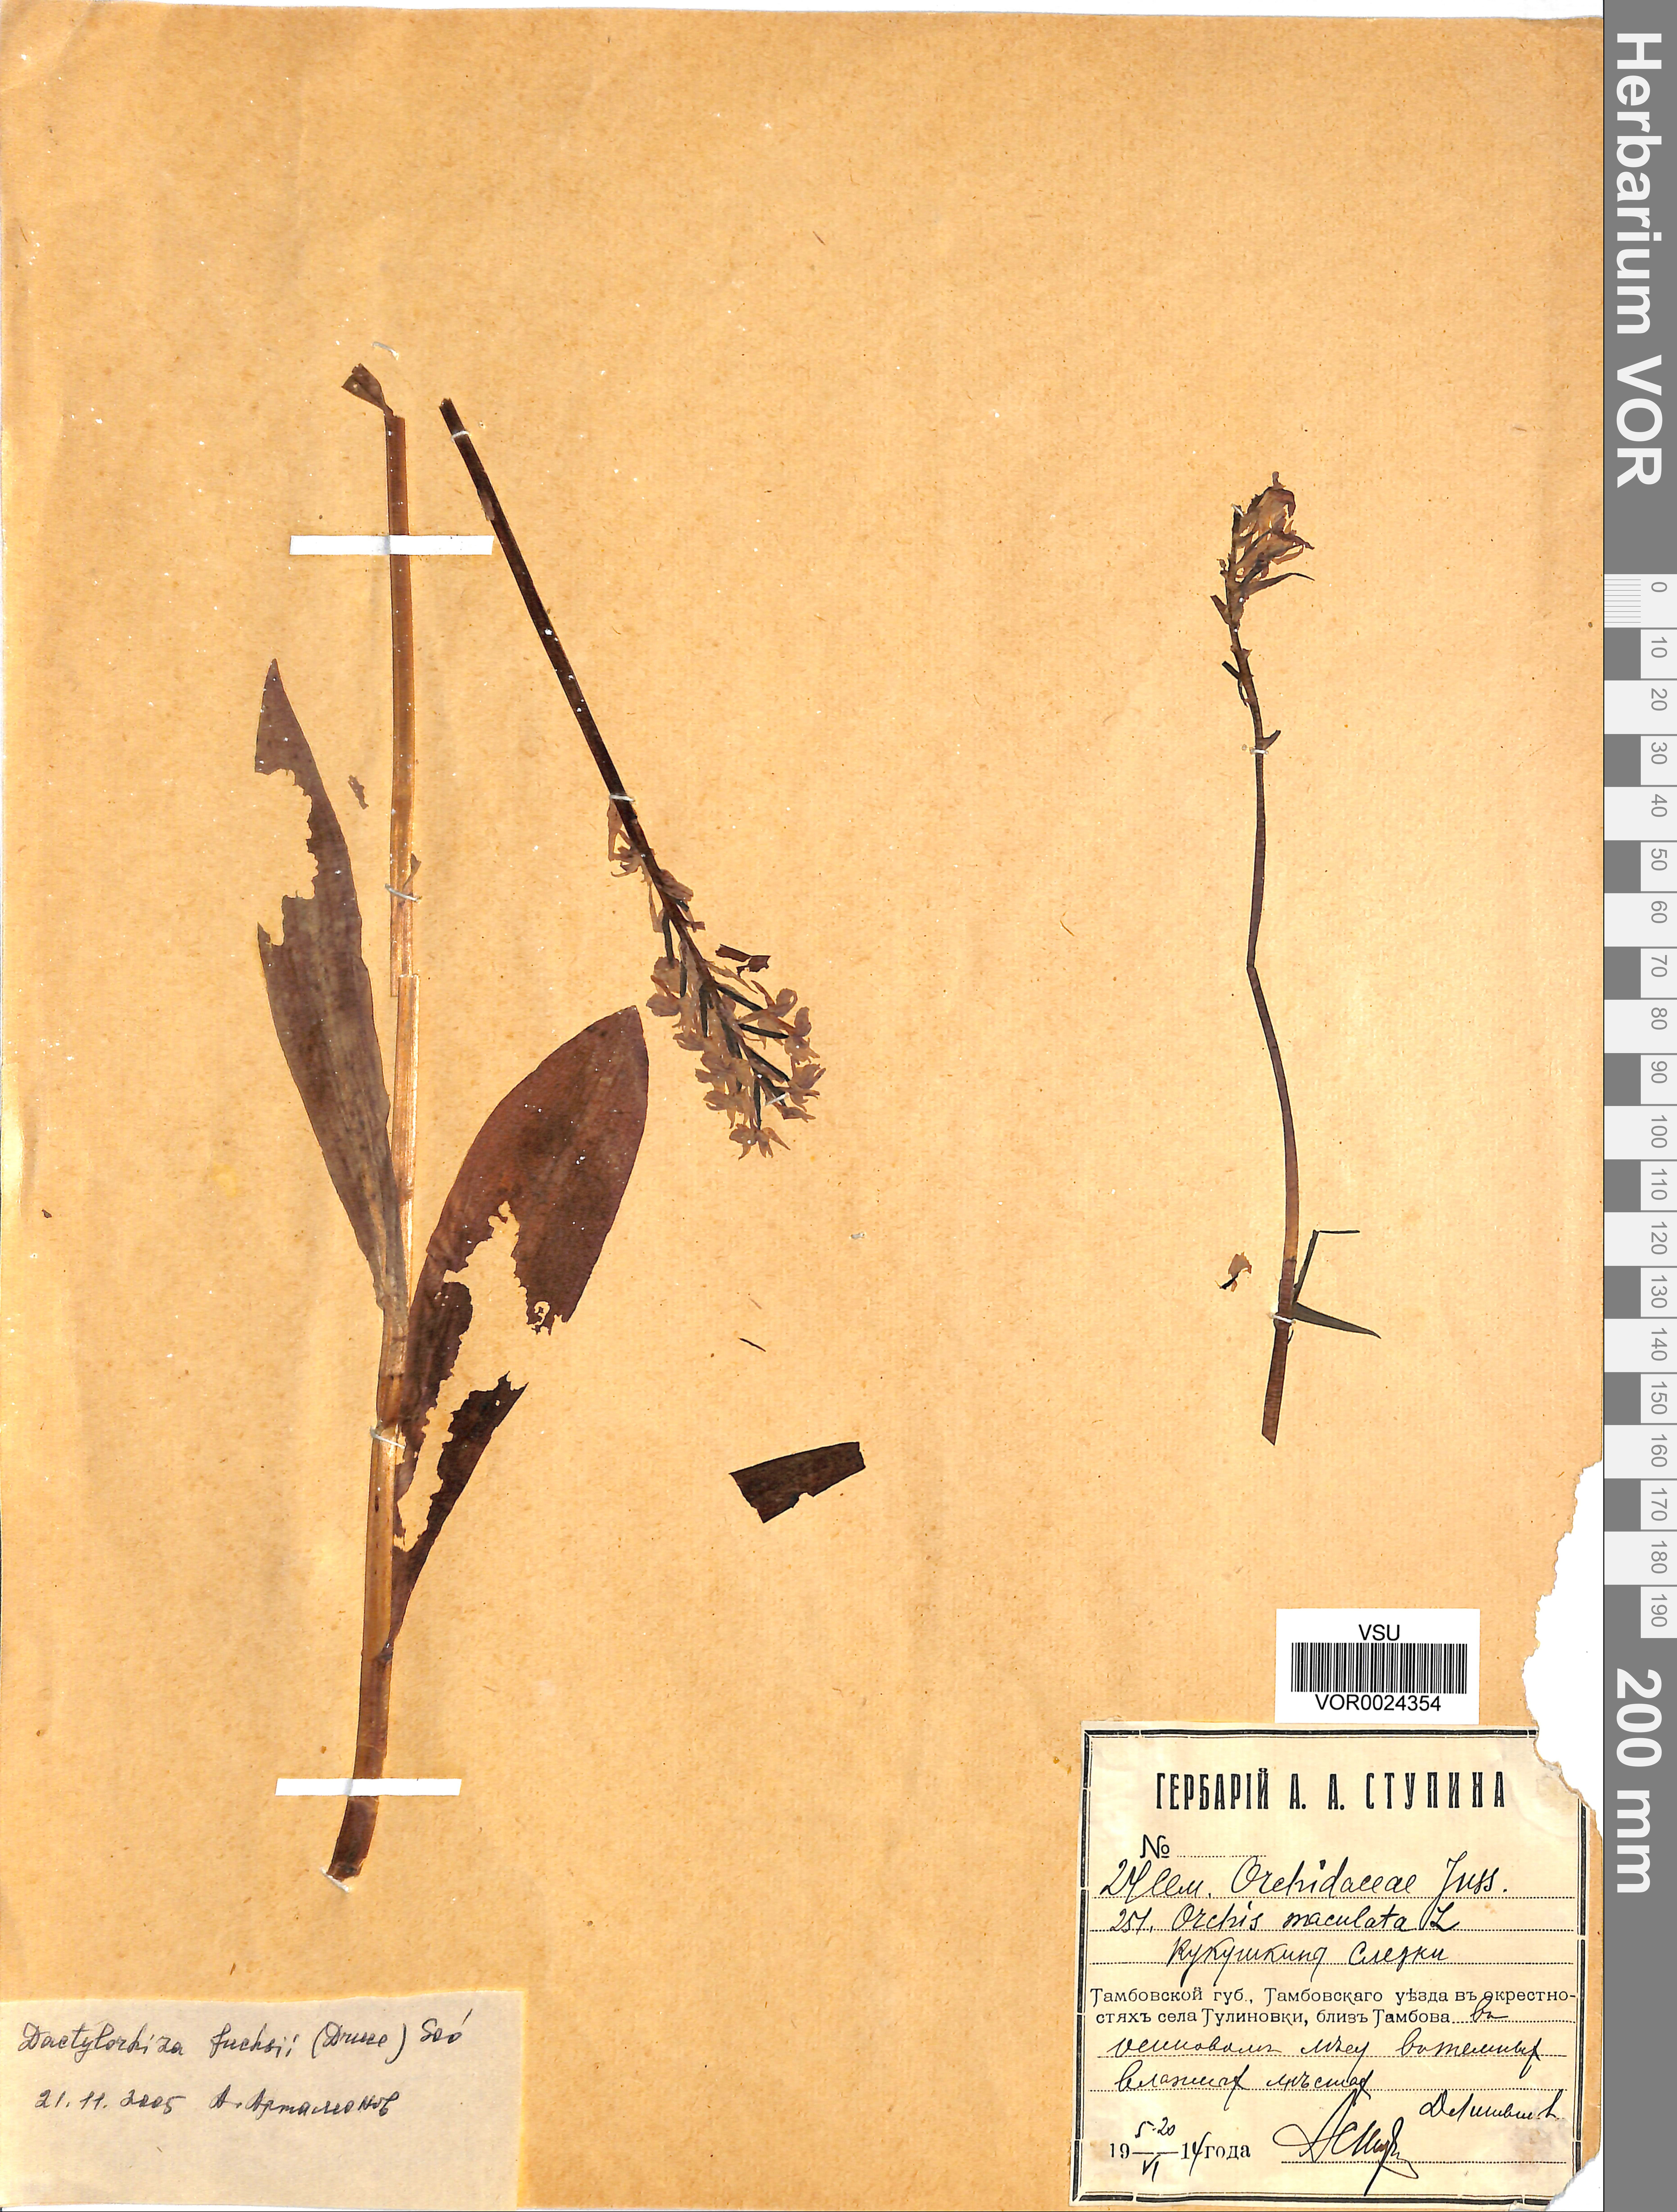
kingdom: Plantae
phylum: Tracheophyta
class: Liliopsida
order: Asparagales
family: Orchidaceae
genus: Dactylorhiza
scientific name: Dactylorhiza maculata
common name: Heath spotted-orchid
